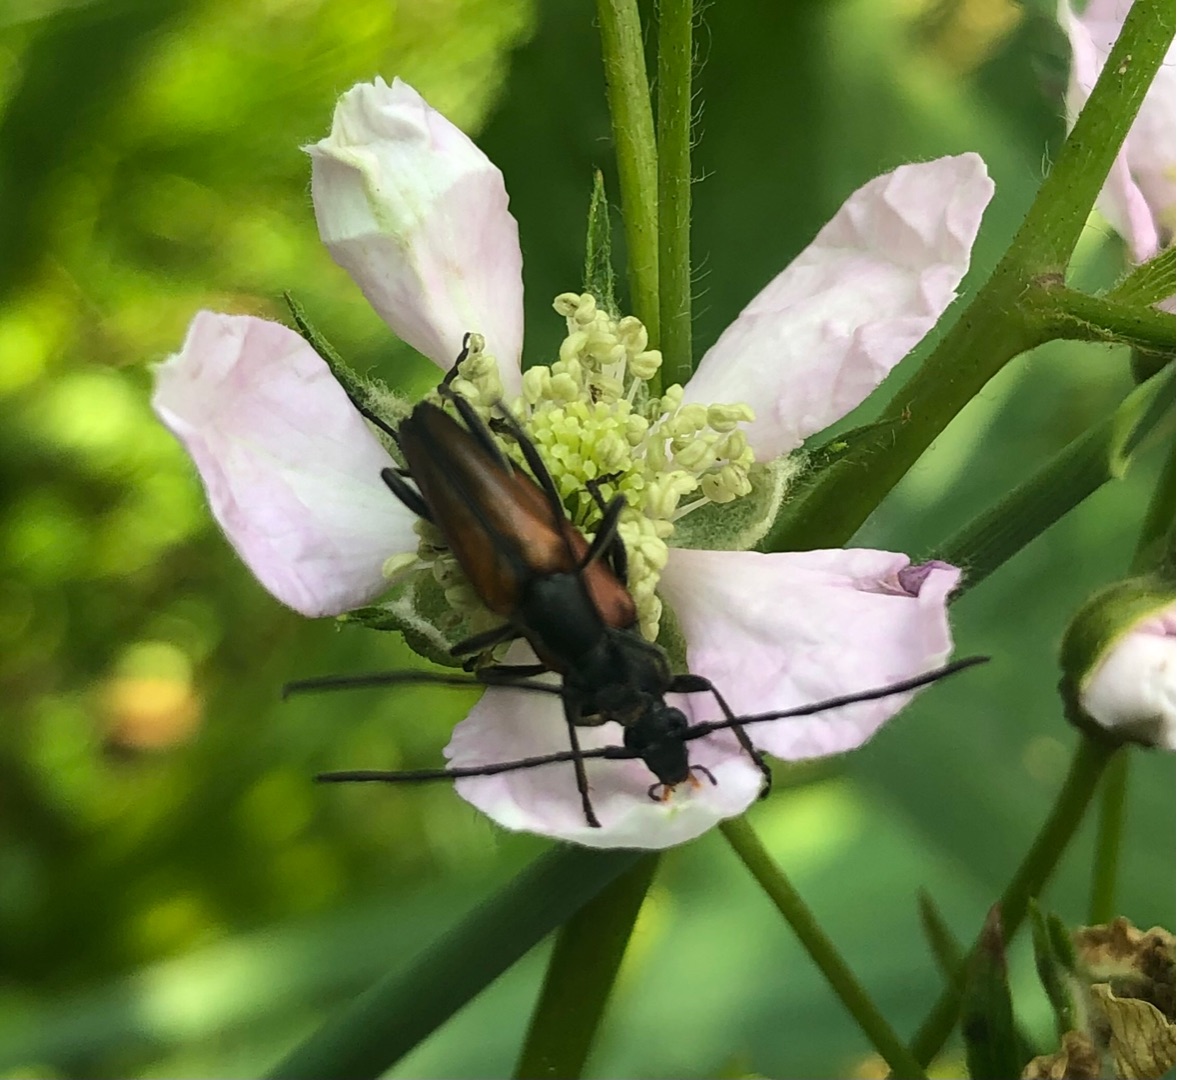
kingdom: Animalia
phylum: Arthropoda
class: Insecta
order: Coleoptera
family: Cerambycidae
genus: Stenurella
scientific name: Stenurella melanura
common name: Sortsømmet blomsterbuk
